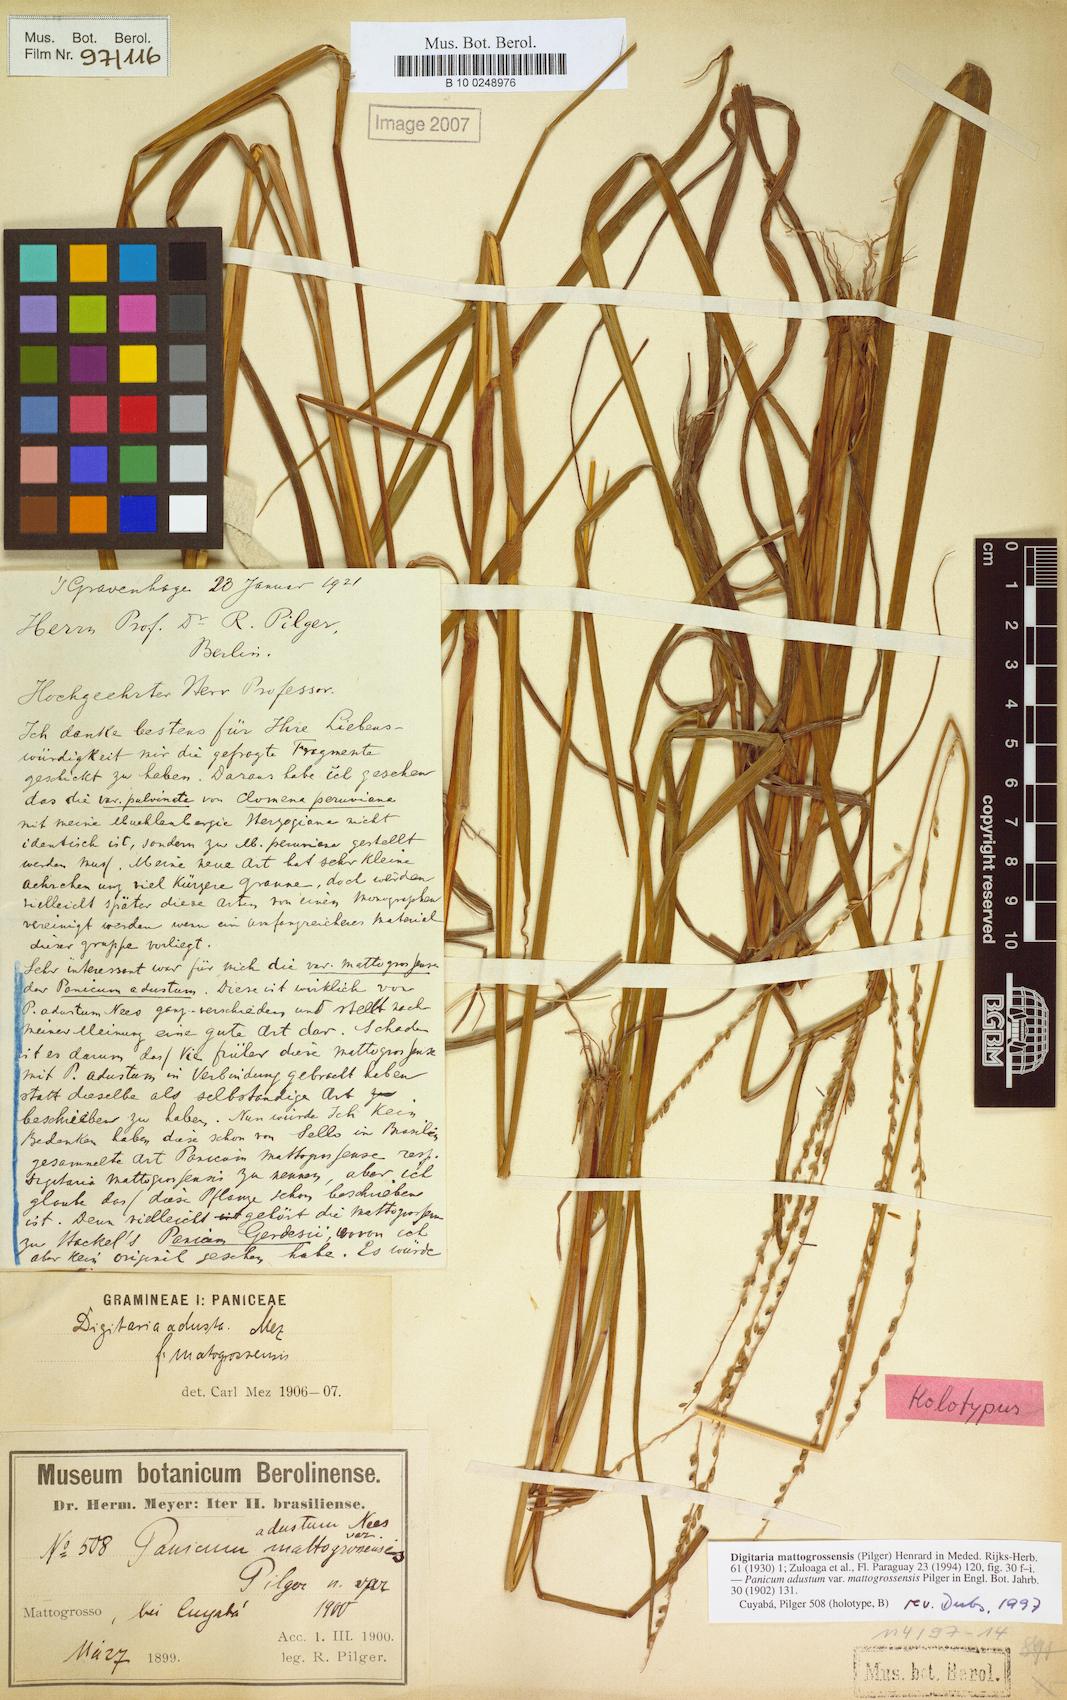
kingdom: Plantae
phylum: Tracheophyta
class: Liliopsida
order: Poales
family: Poaceae
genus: Sacciolepis
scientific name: Sacciolepis angustissima
